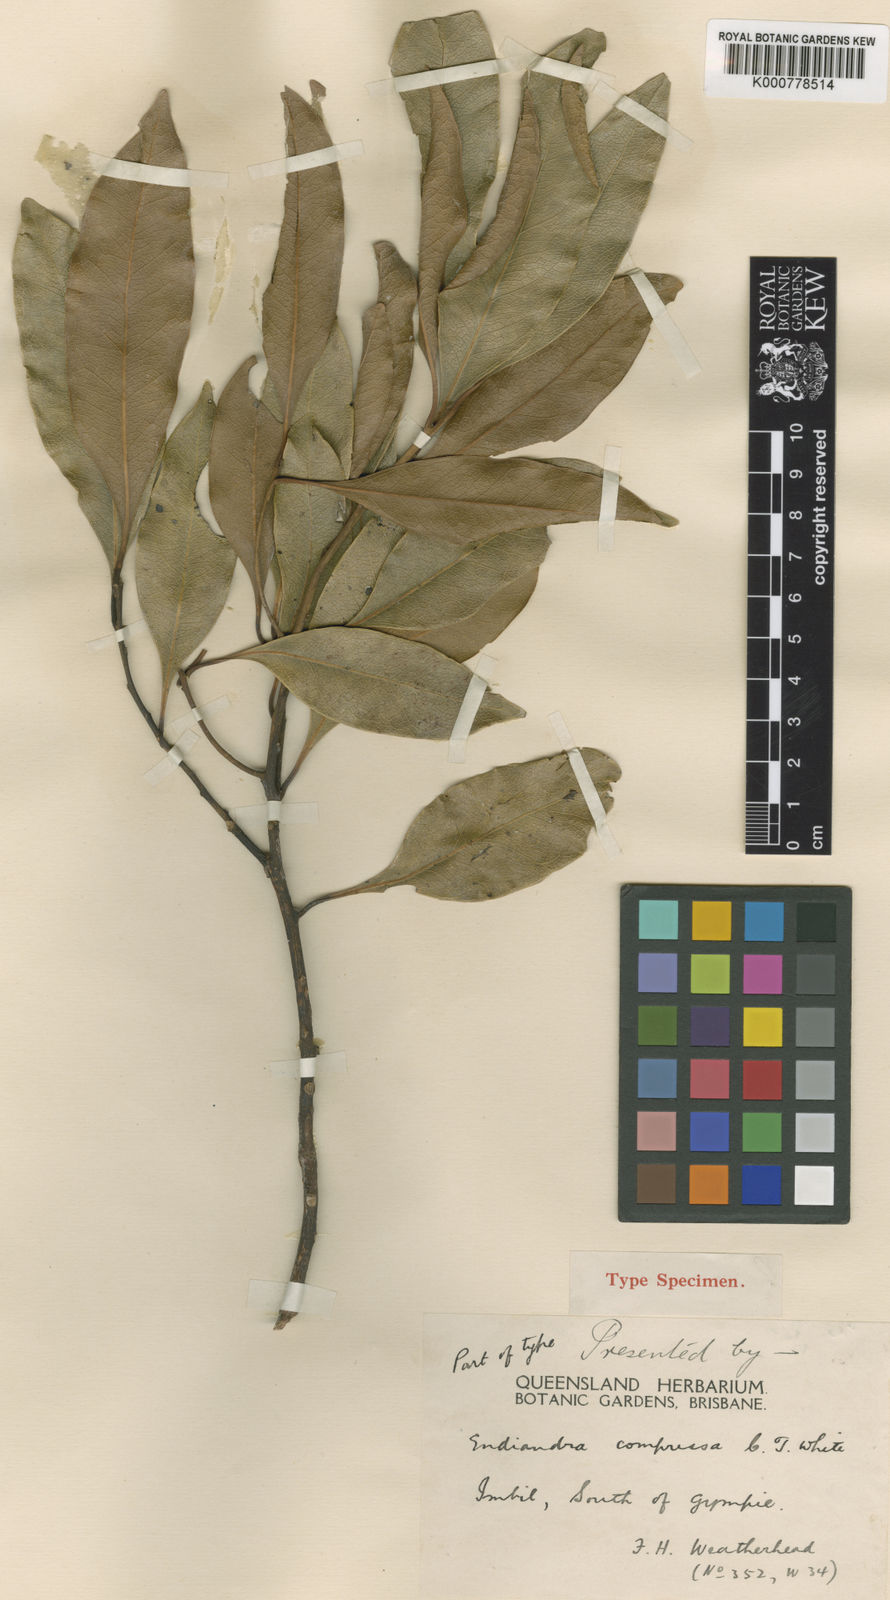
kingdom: Plantae
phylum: Tracheophyta
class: Magnoliopsida
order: Laurales
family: Lauraceae
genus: Endiandra
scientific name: Endiandra compressa
